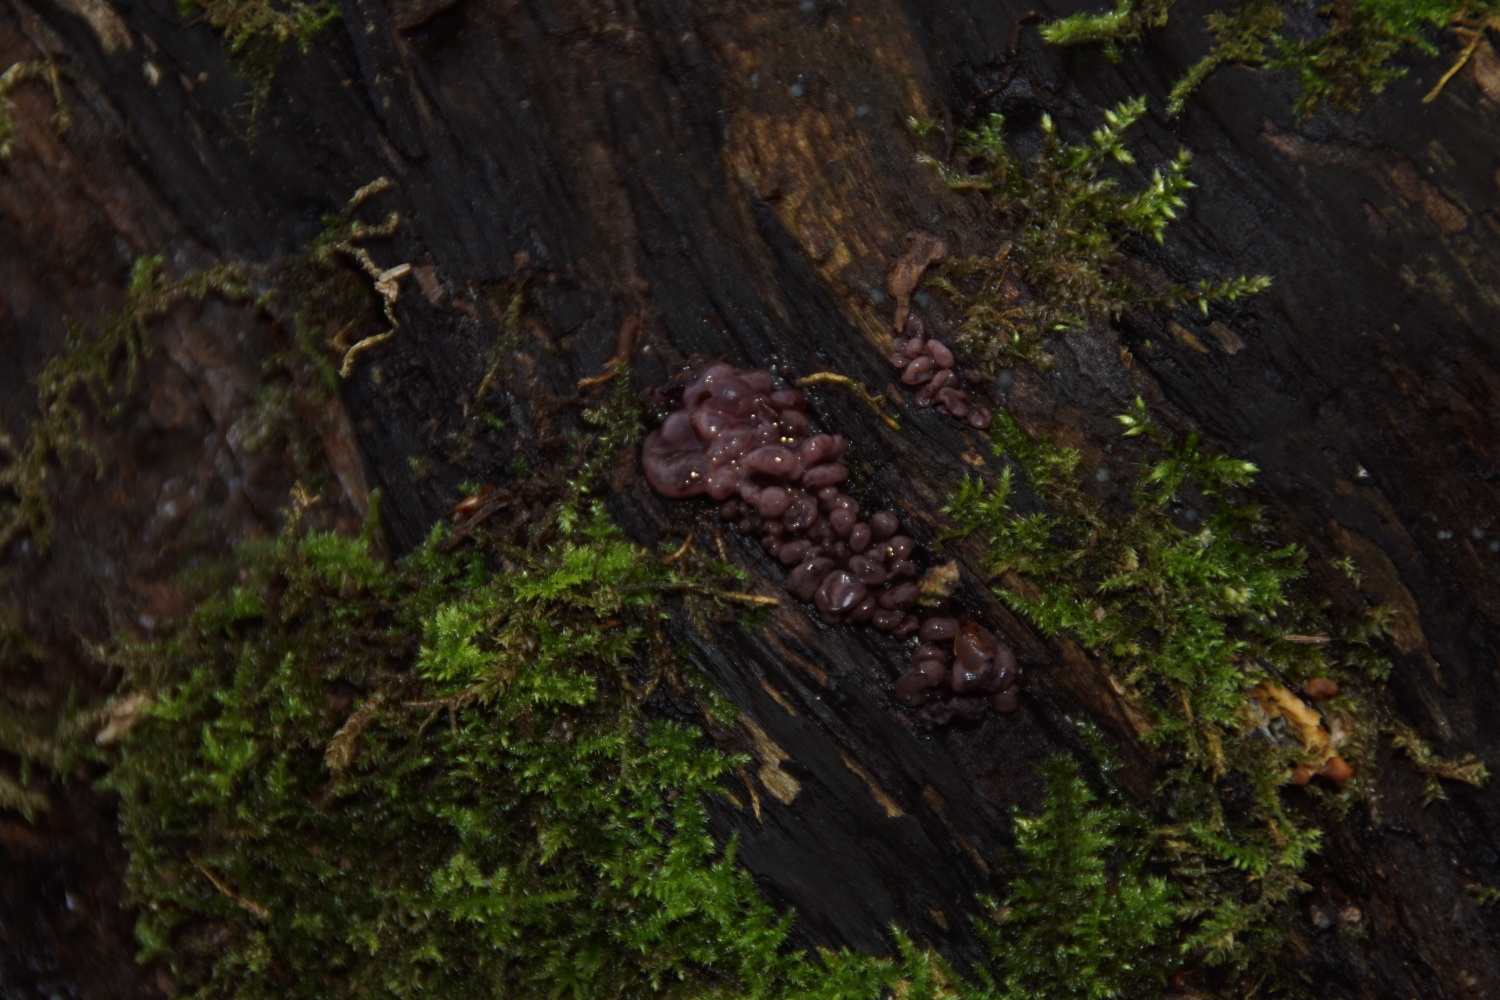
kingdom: Fungi
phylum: Ascomycota
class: Leotiomycetes
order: Helotiales
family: Gelatinodiscaceae
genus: Ascocoryne
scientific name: Ascocoryne sarcoides
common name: rødlilla sejskive
